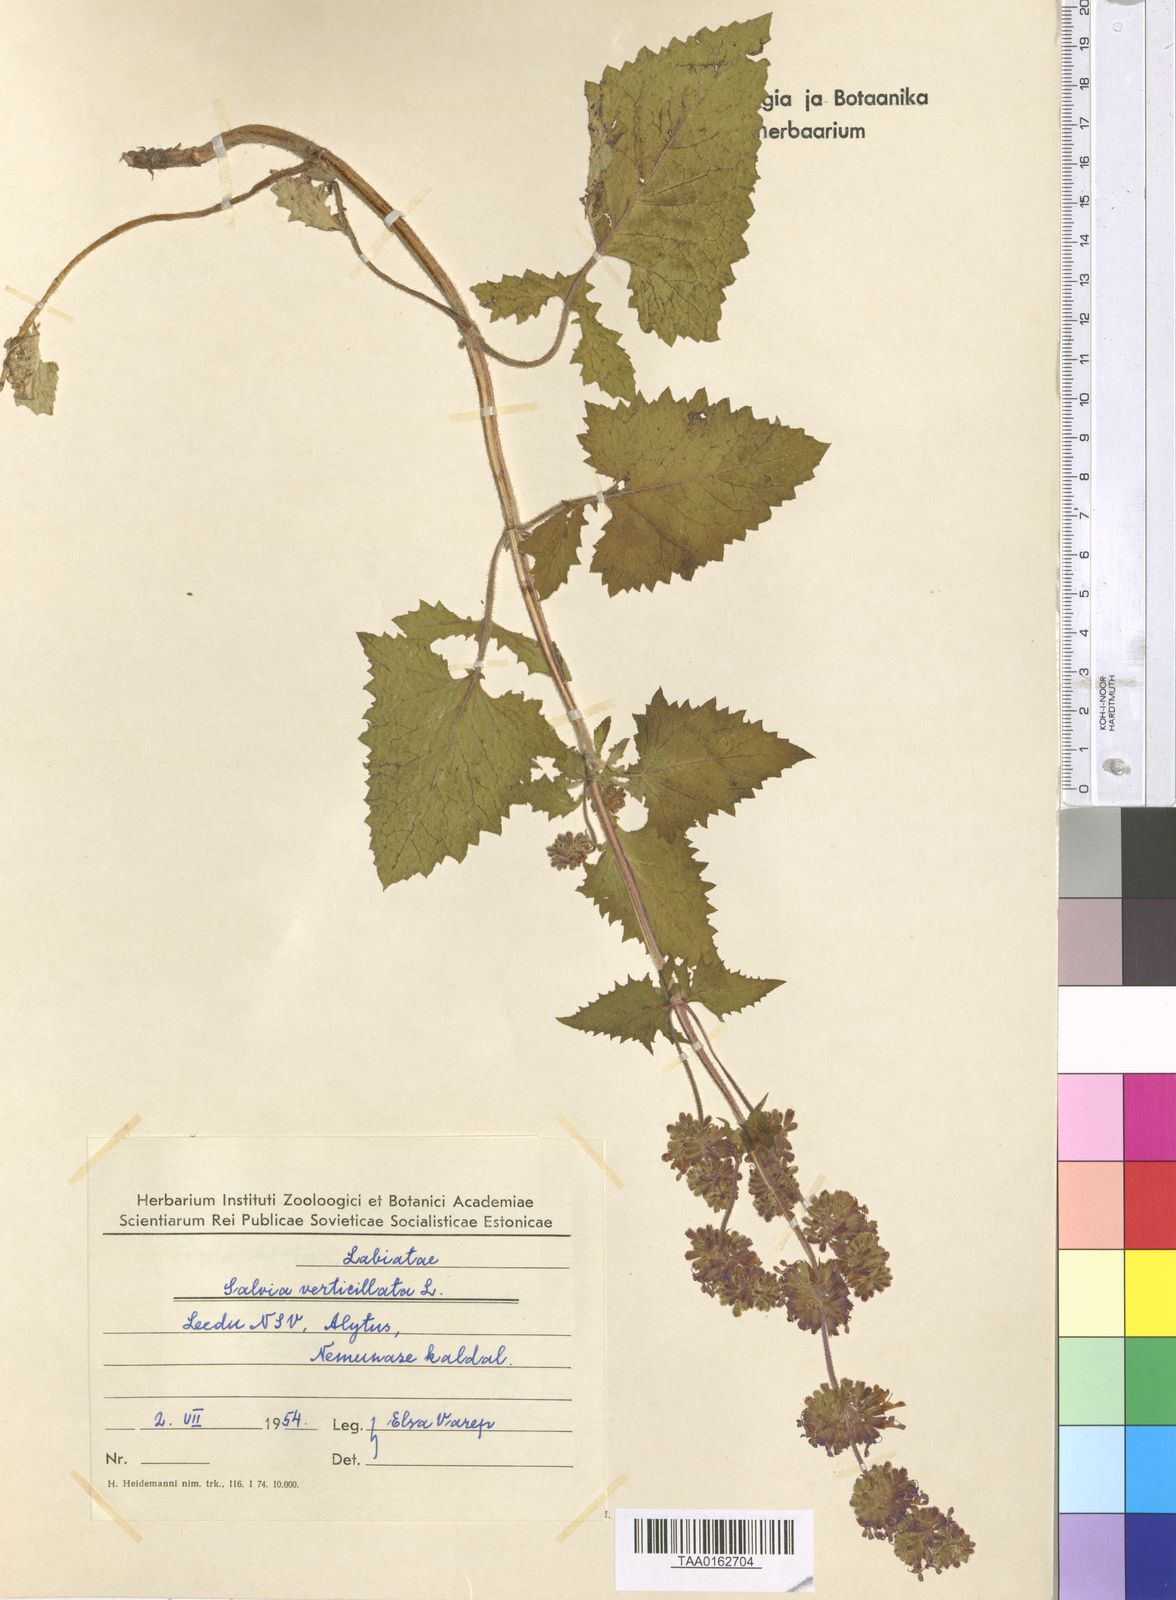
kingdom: Plantae
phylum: Tracheophyta
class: Magnoliopsida
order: Lamiales
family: Lamiaceae
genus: Salvia
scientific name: Salvia verticillata
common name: Whorled clary
